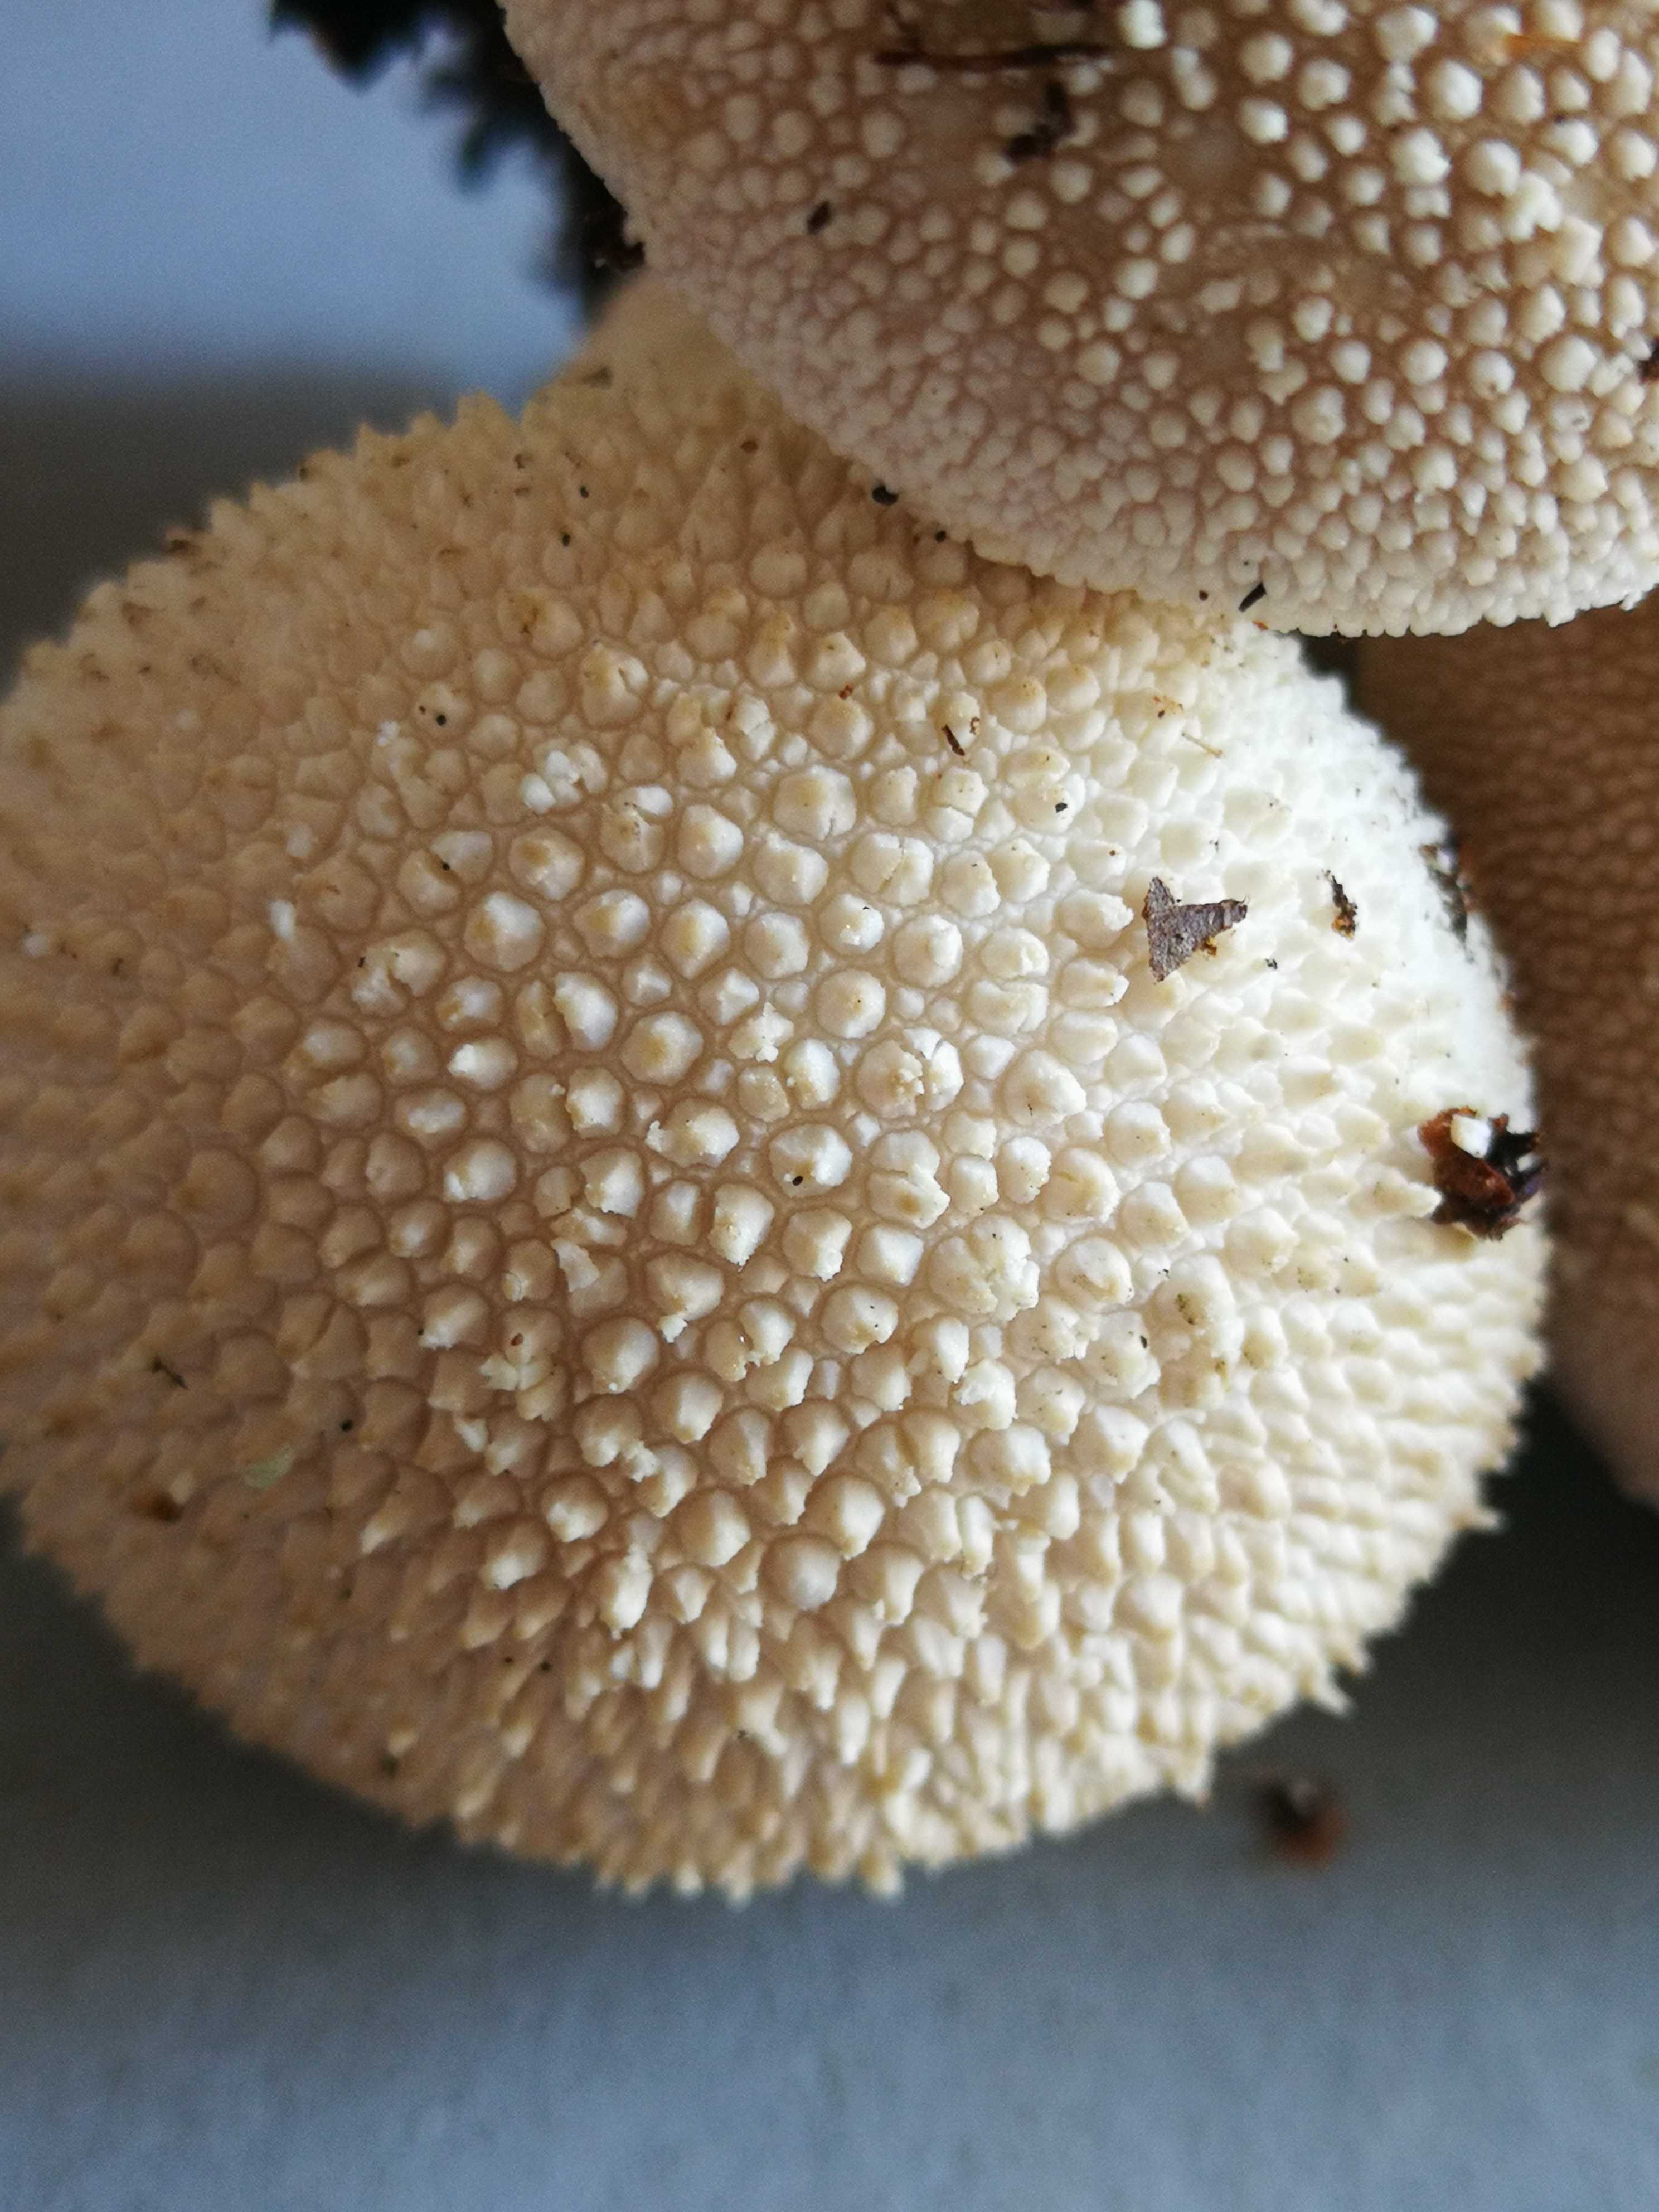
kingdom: Fungi
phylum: Basidiomycota
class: Agaricomycetes
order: Agaricales
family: Lycoperdaceae
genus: Lycoperdon
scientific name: Lycoperdon perlatum
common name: krystal-støvbold
